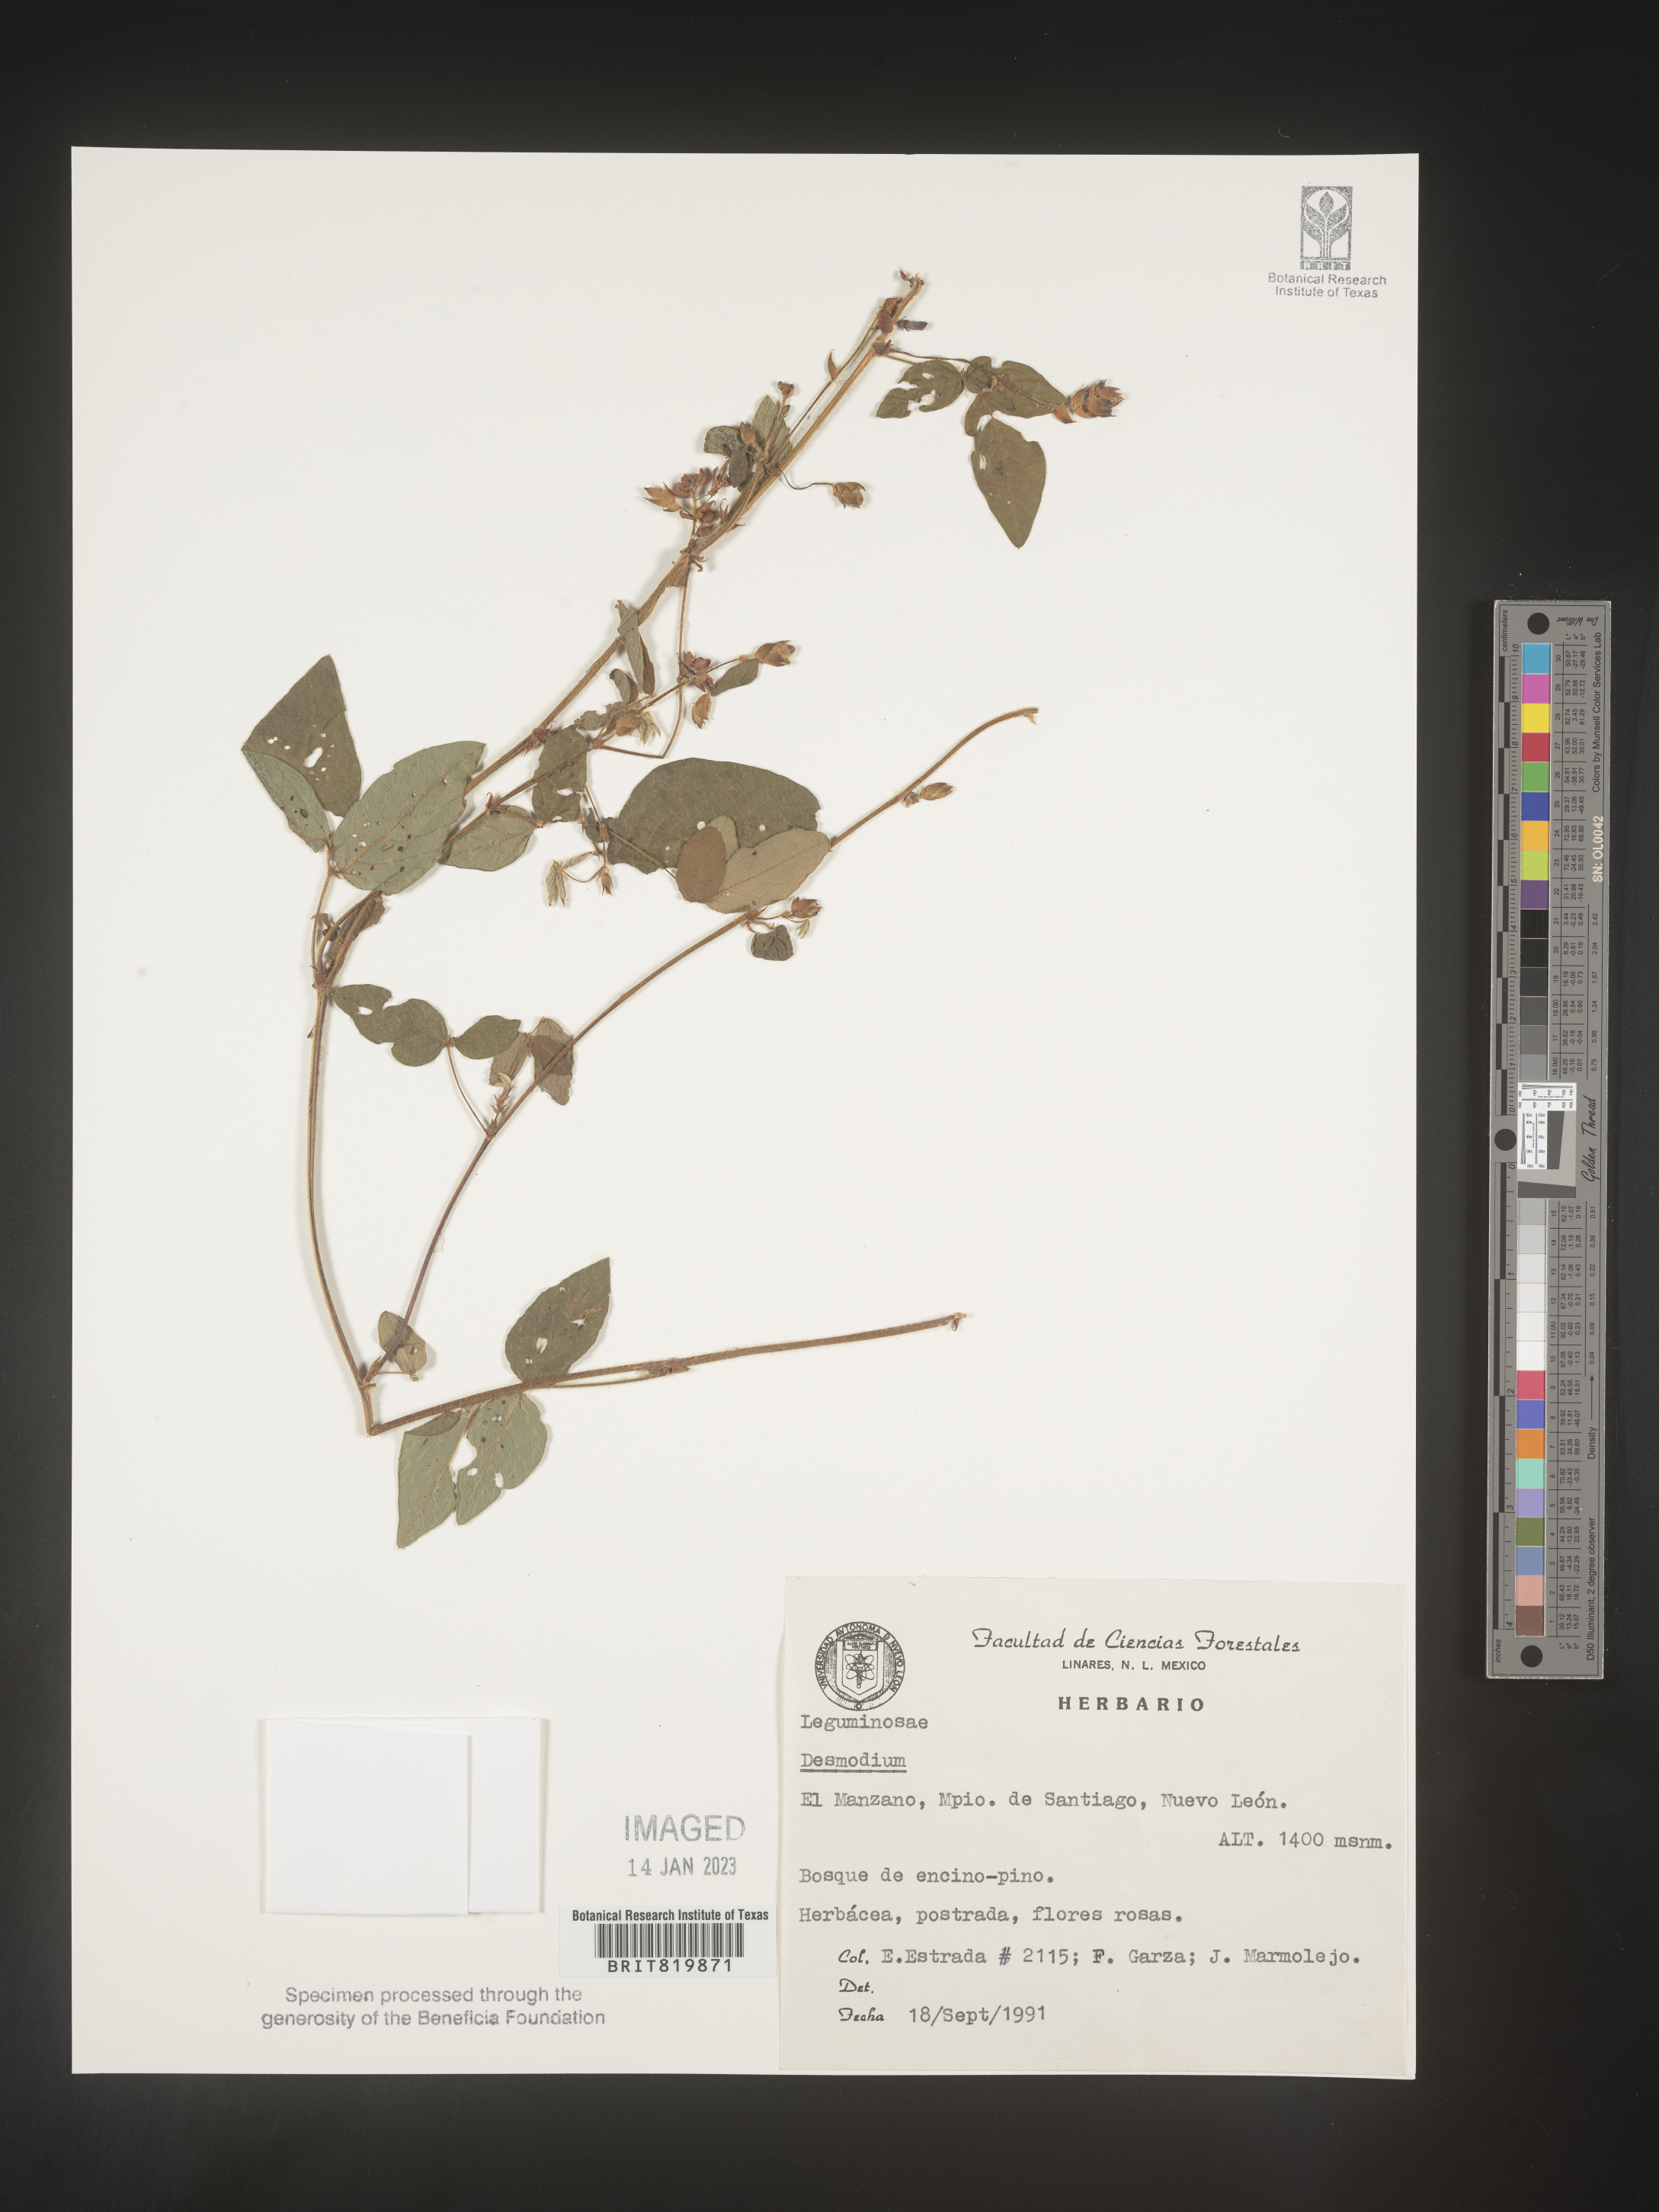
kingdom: Plantae
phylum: Tracheophyta
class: Magnoliopsida
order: Fabales
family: Fabaceae
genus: Desmodium
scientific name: Desmodium
